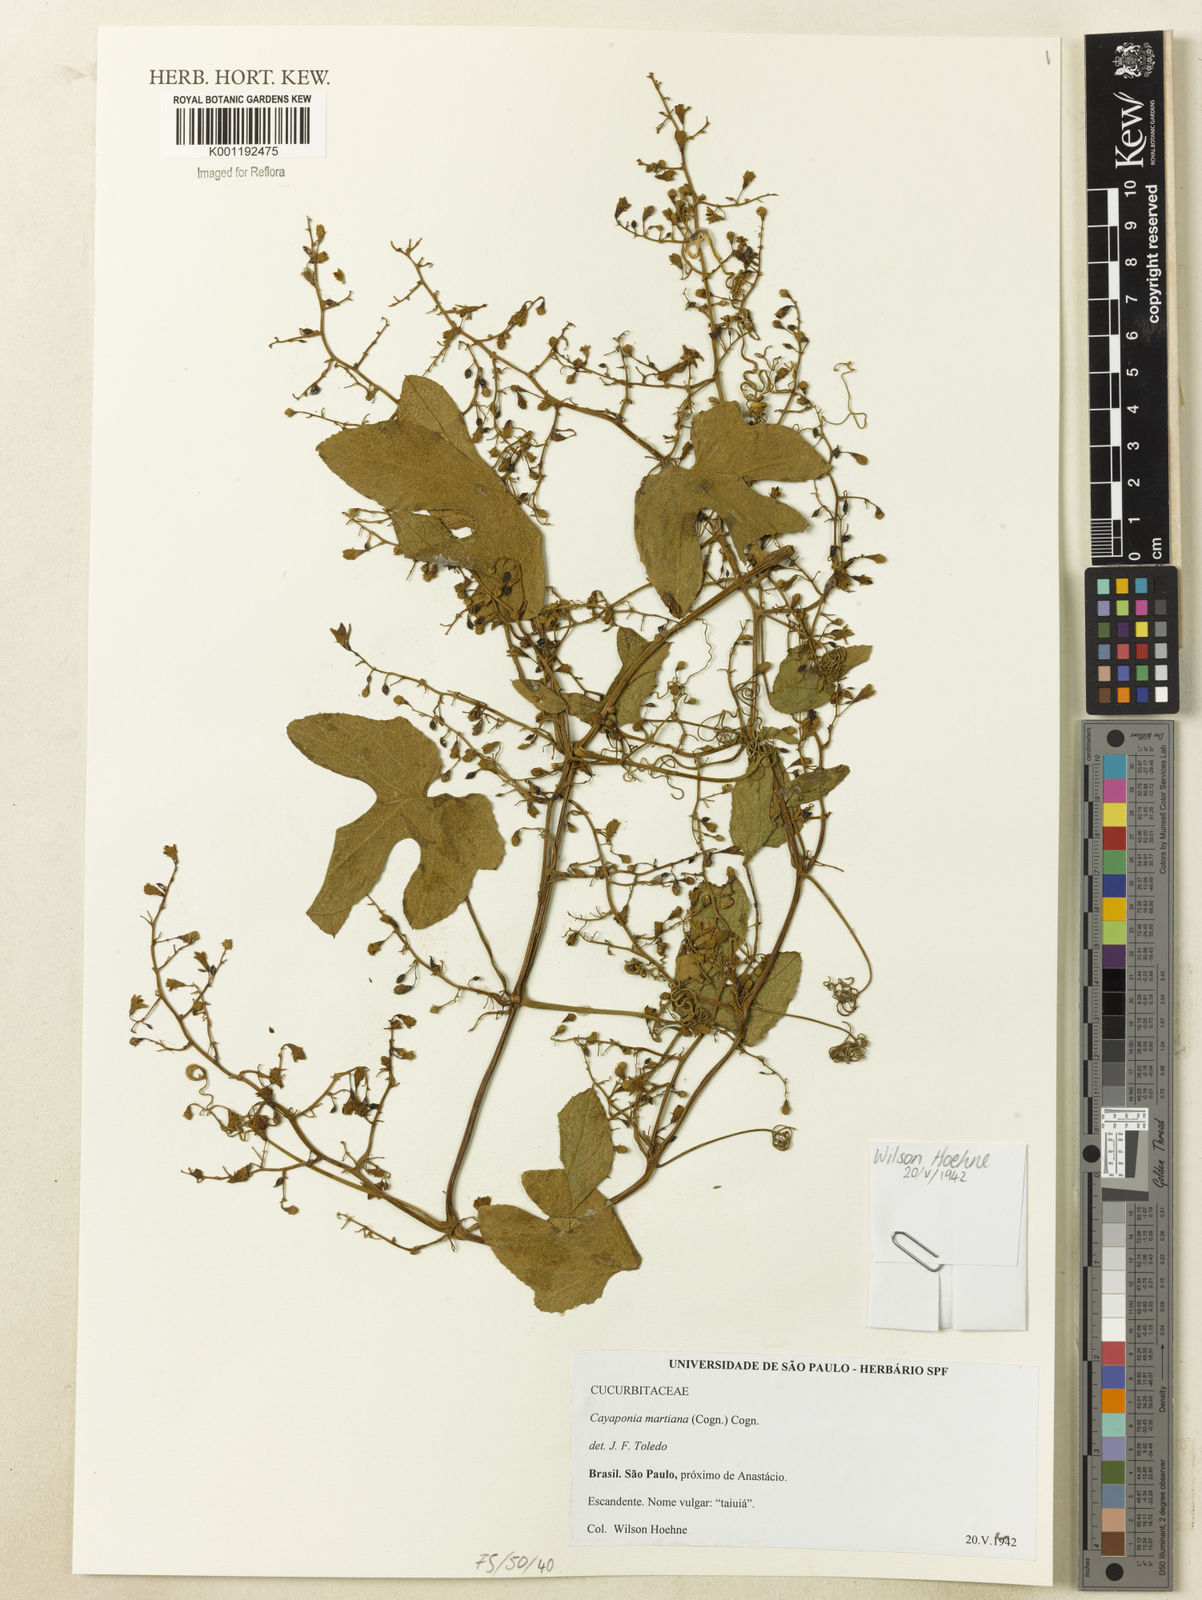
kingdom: Plantae
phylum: Tracheophyta
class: Magnoliopsida
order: Cucurbitales
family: Cucurbitaceae
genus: Cayaponia
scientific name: Cayaponia martiana
